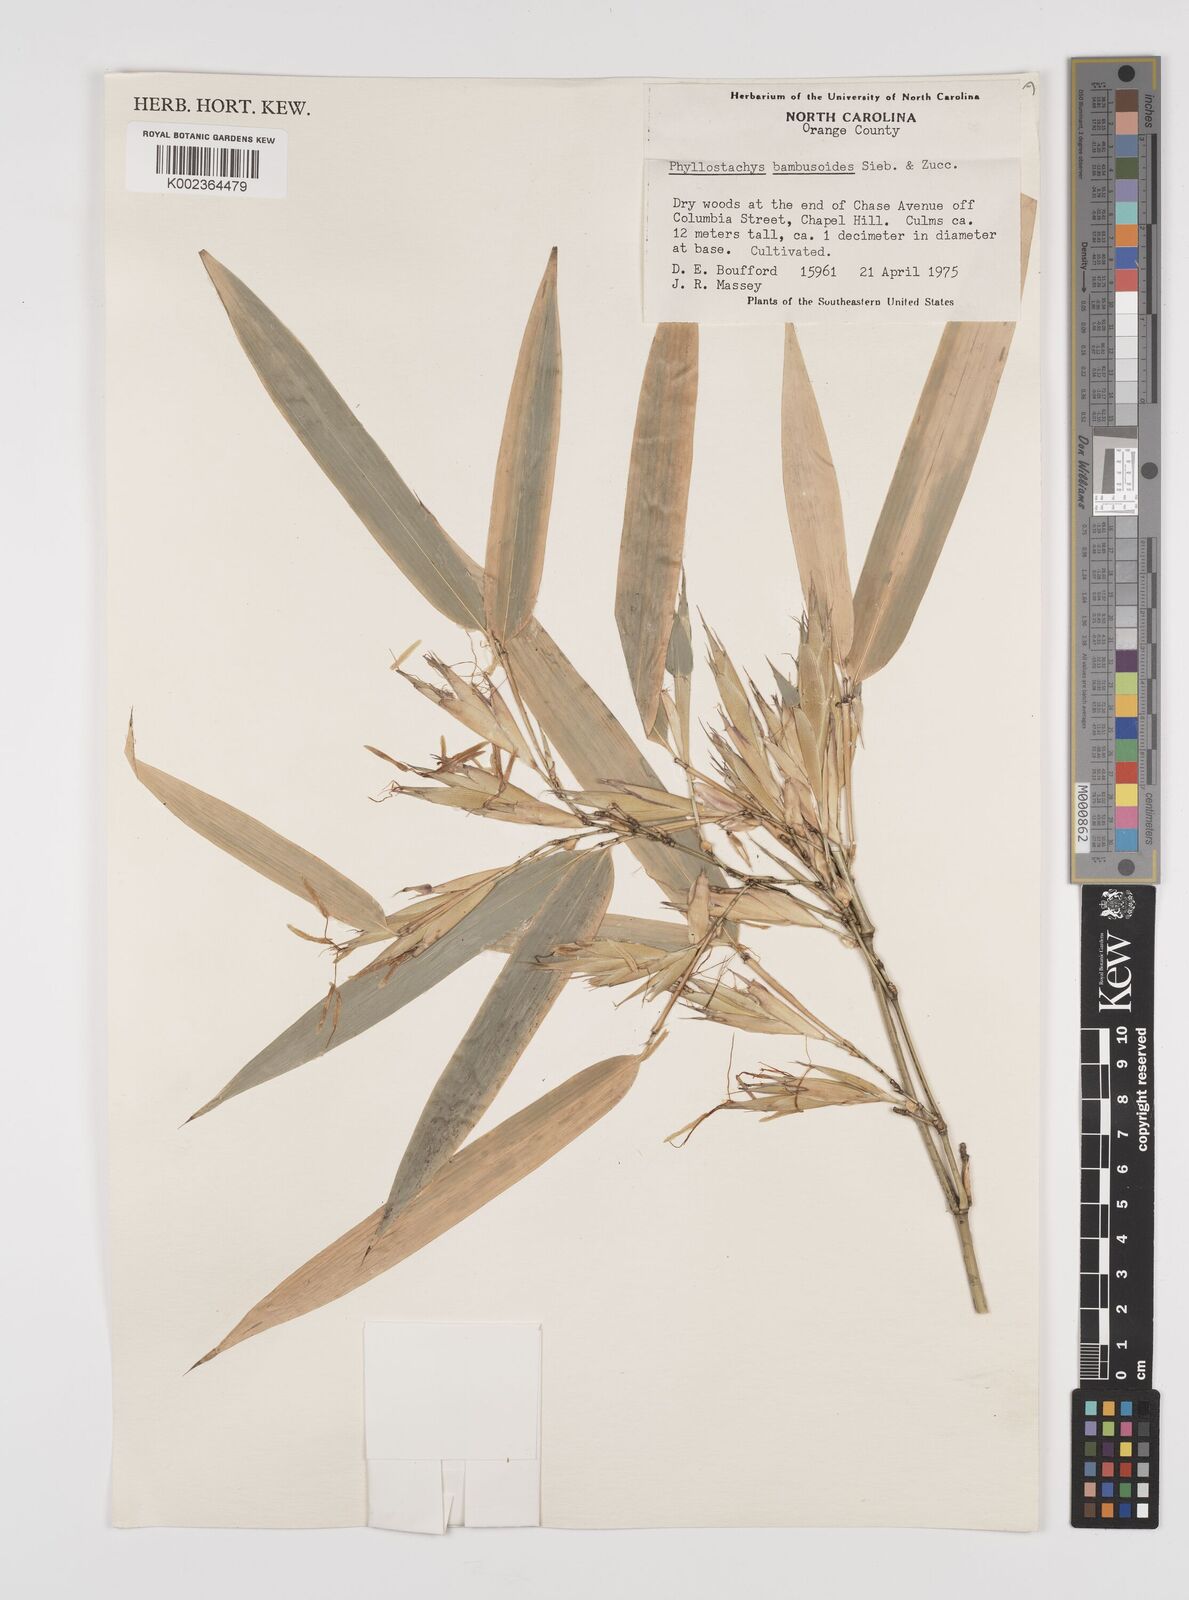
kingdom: Plantae
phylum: Tracheophyta
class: Liliopsida
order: Poales
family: Poaceae
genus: Phyllostachys
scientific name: Phyllostachys reticulata
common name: Bamboo
